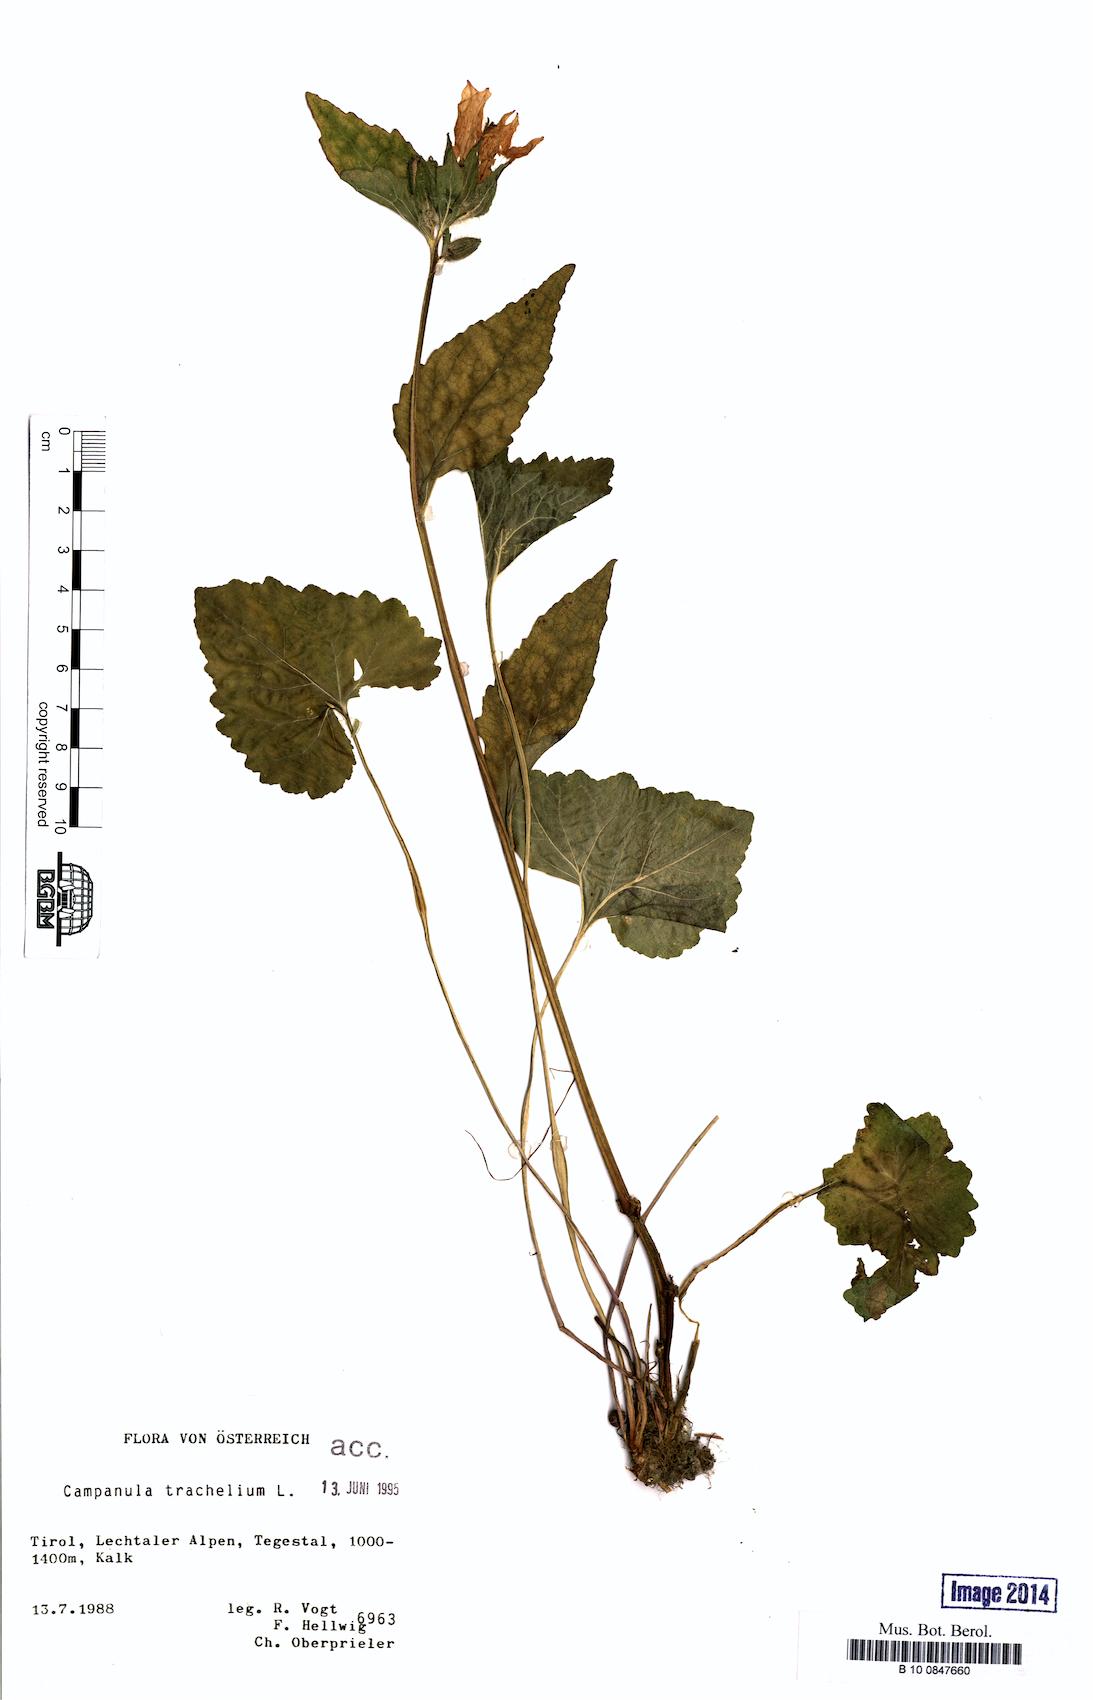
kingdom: Plantae
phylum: Tracheophyta
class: Magnoliopsida
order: Asterales
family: Campanulaceae
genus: Campanula
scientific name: Campanula trachelium
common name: Nettle-leaved bellflower
